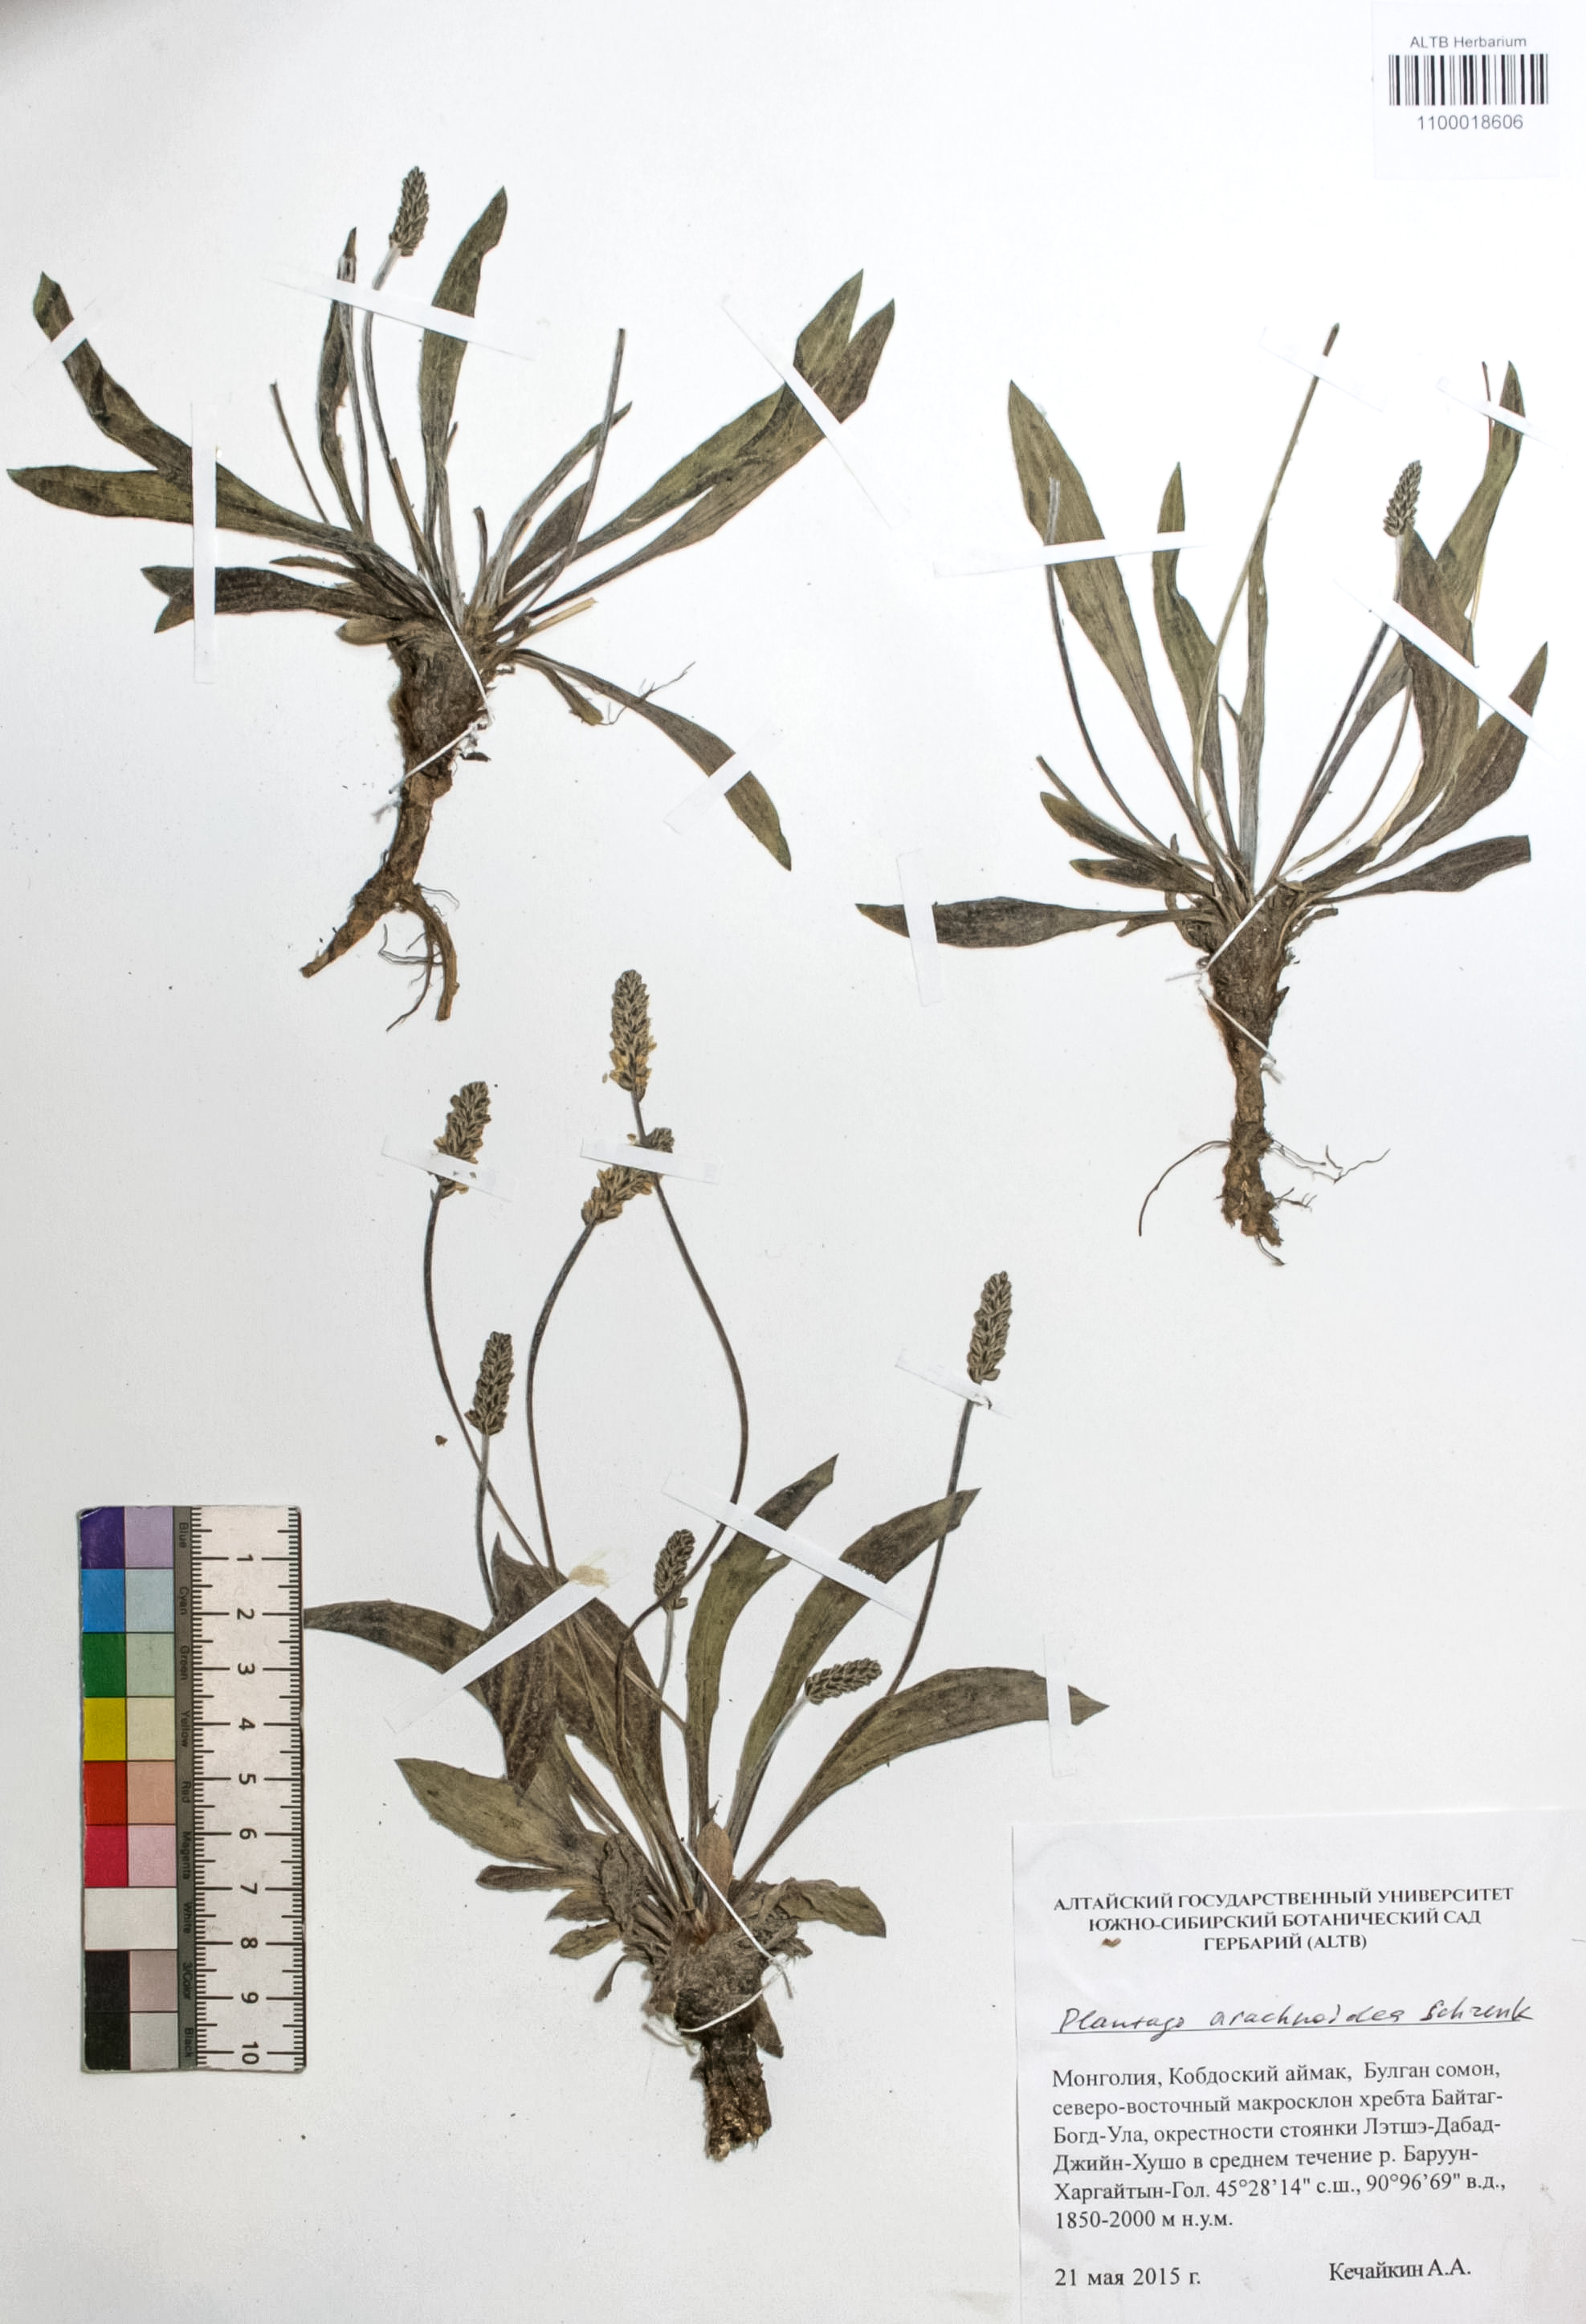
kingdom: Plantae
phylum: Tracheophyta
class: Magnoliopsida
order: Lamiales
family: Plantaginaceae
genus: Plantago
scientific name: Plantago arachnoidea
